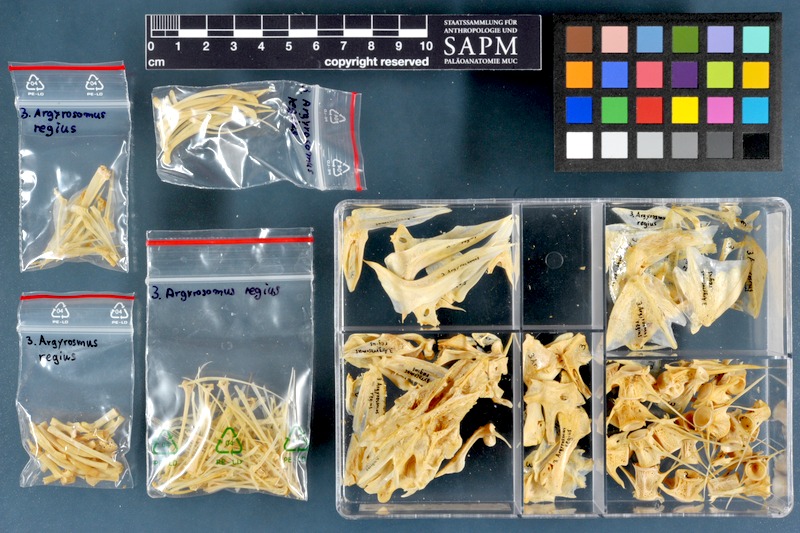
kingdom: Animalia
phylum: Chordata
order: Perciformes
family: Sciaenidae
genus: Argyrosomus
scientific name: Argyrosomus regius
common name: Meagre
